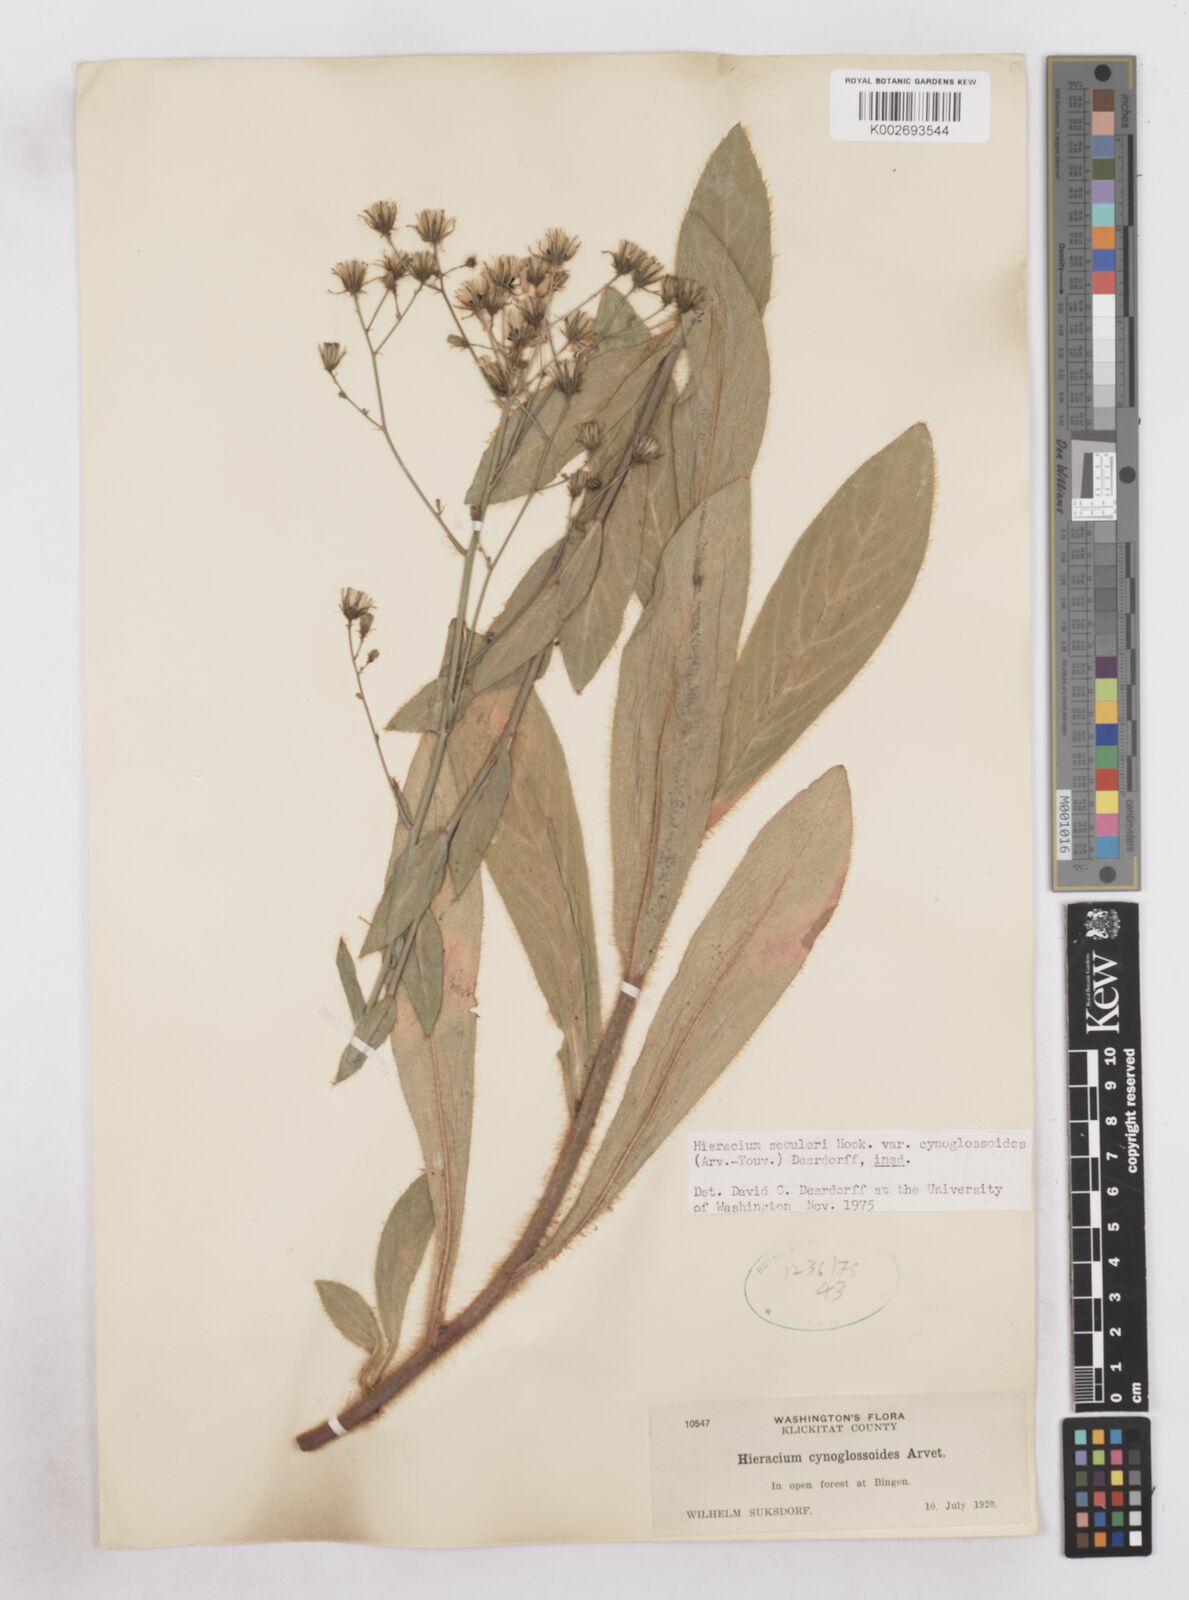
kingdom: Plantae
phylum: Tracheophyta
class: Magnoliopsida
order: Asterales
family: Asteraceae
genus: Hieracium
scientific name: Hieracium scouleri
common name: Hound's-tongue hawkweed
